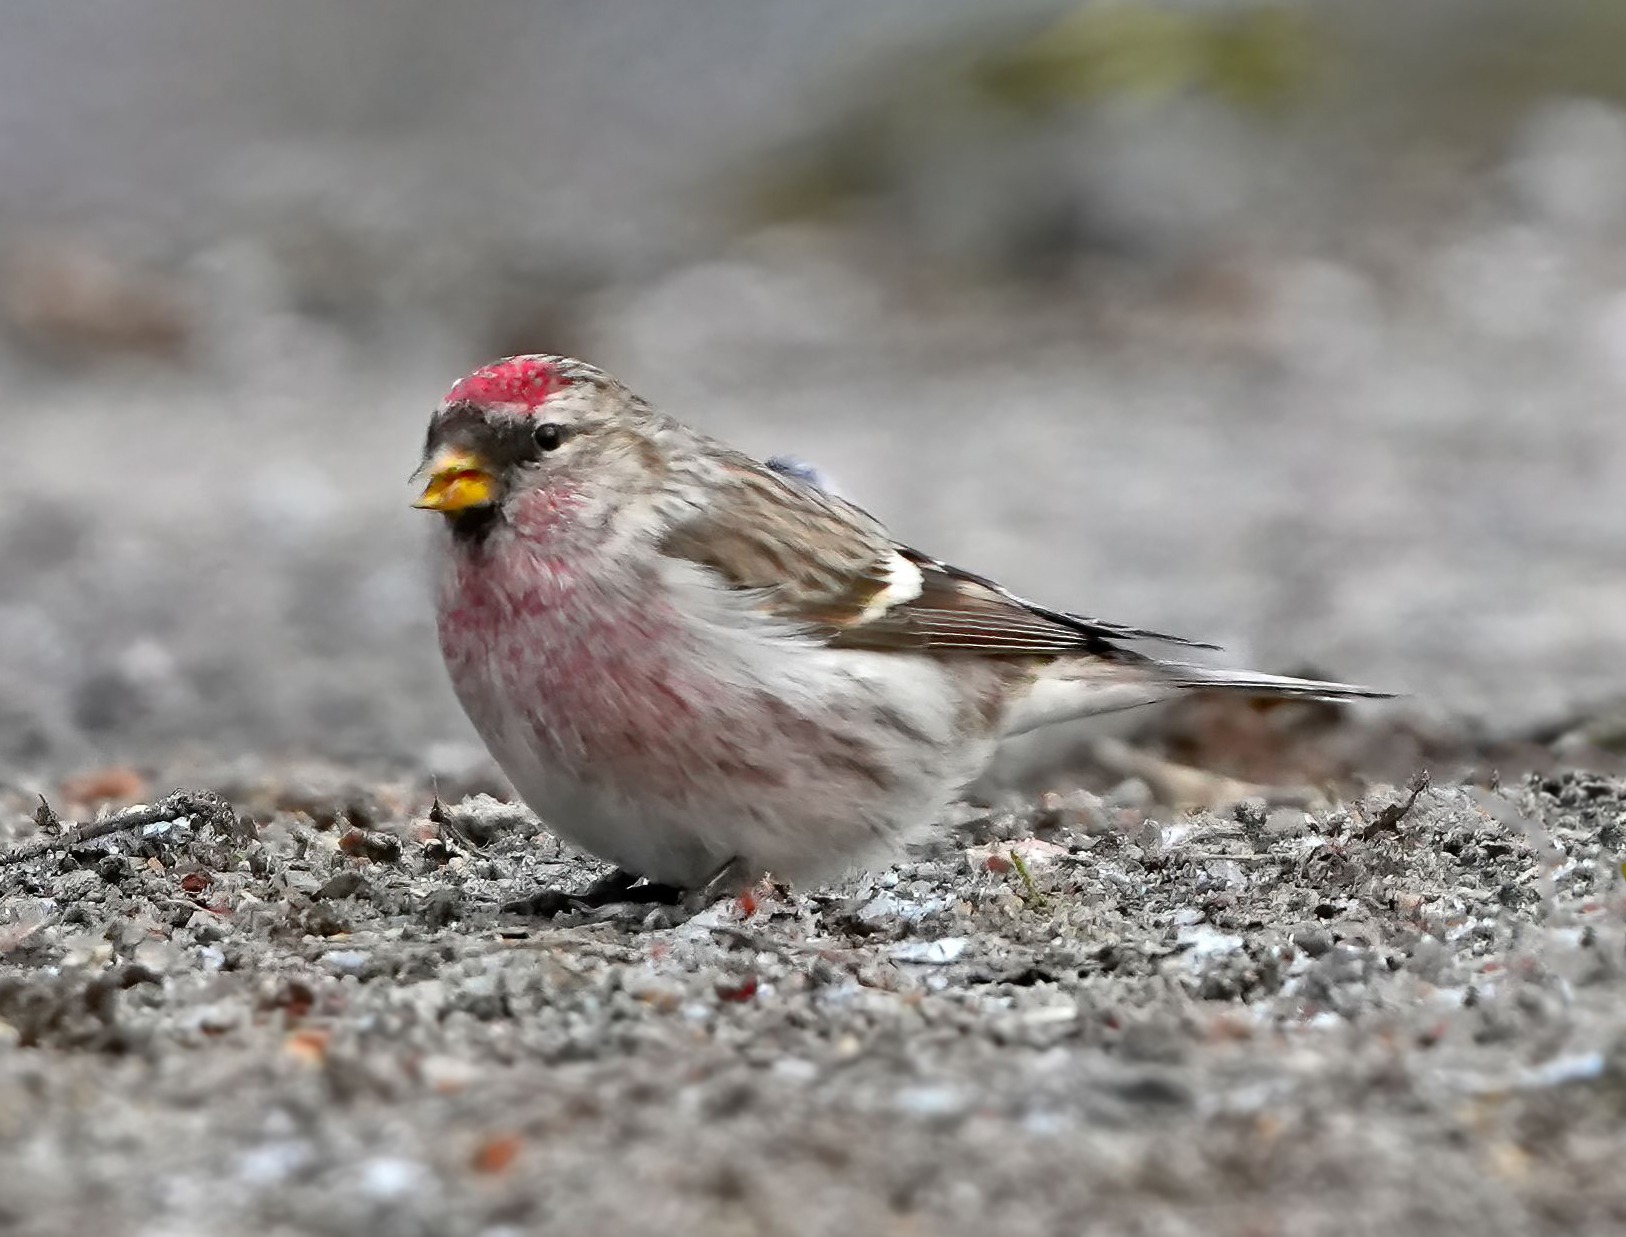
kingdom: Animalia
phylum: Chordata
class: Aves
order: Passeriformes
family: Fringillidae
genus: Acanthis
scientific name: Acanthis flammea
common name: Nordlig gråsisken
